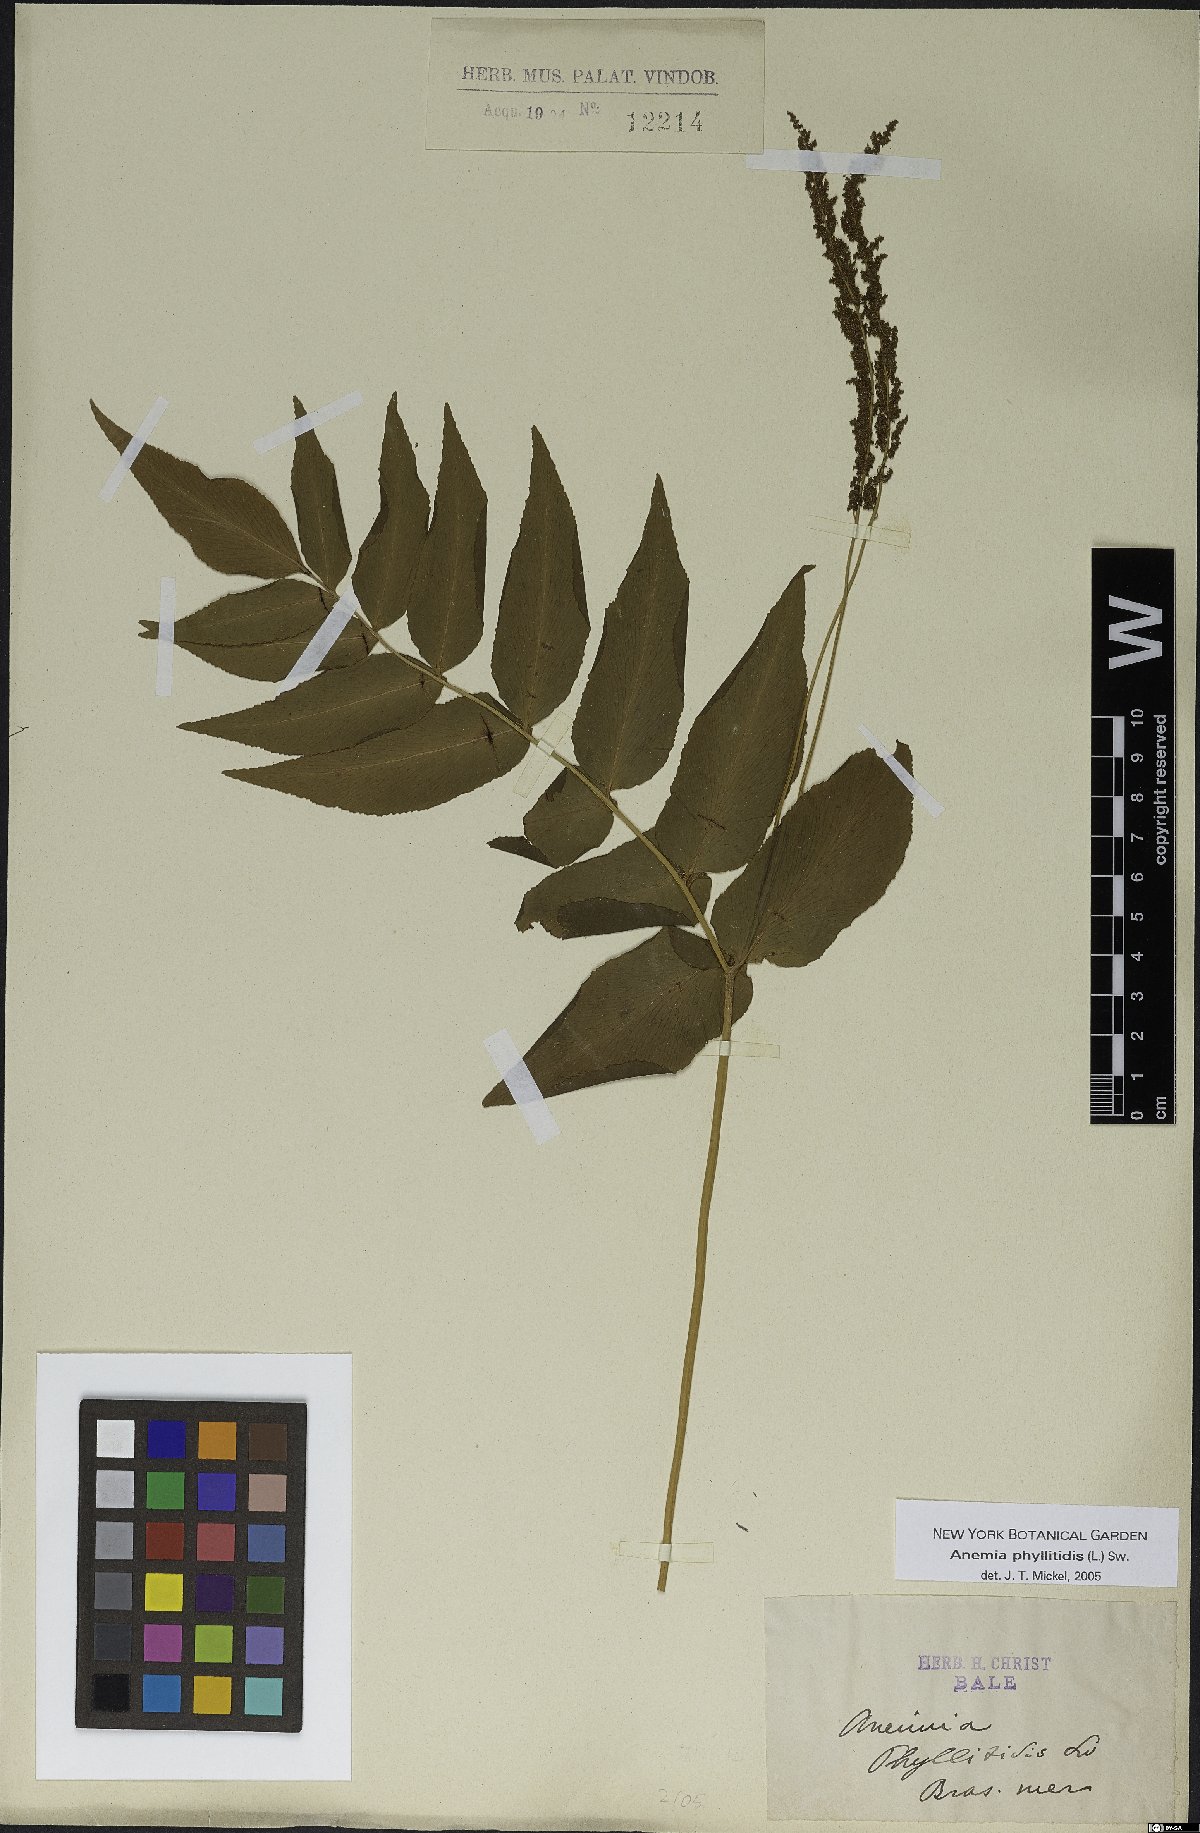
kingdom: Plantae
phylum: Tracheophyta
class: Polypodiopsida
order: Schizaeales
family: Anemiaceae
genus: Anemia
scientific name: Anemia phyllitidis
